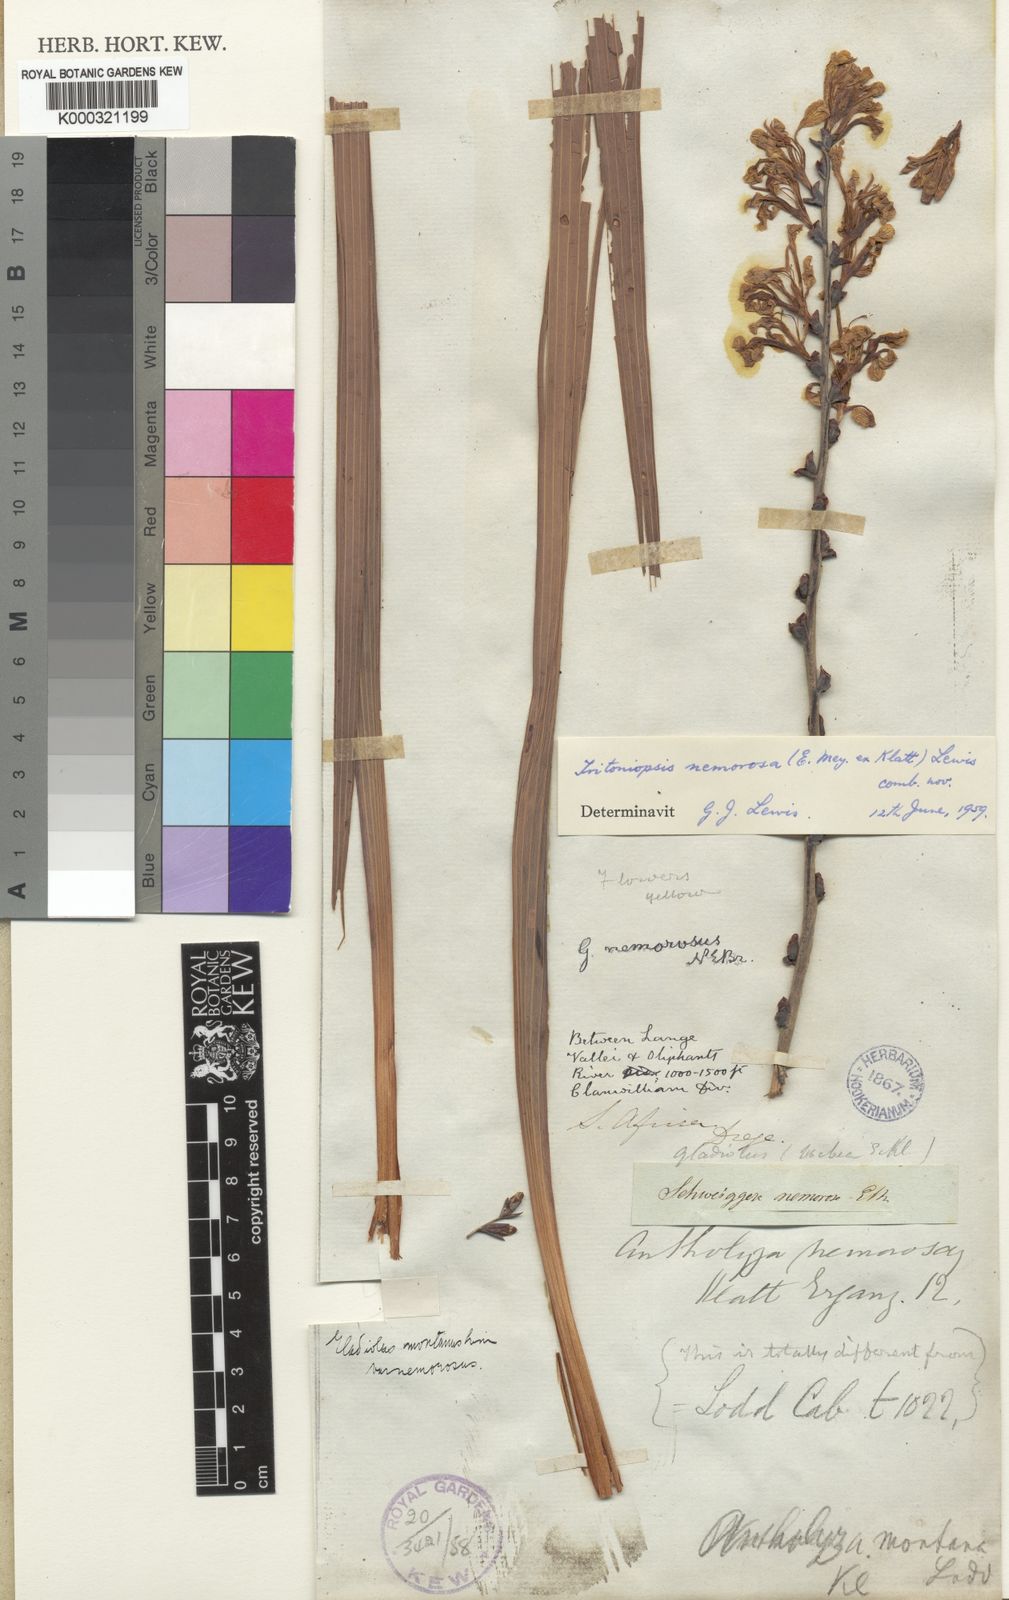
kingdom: Plantae
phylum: Tracheophyta
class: Liliopsida
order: Asparagales
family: Iridaceae
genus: Tritoniopsis
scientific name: Tritoniopsis nemorosa
